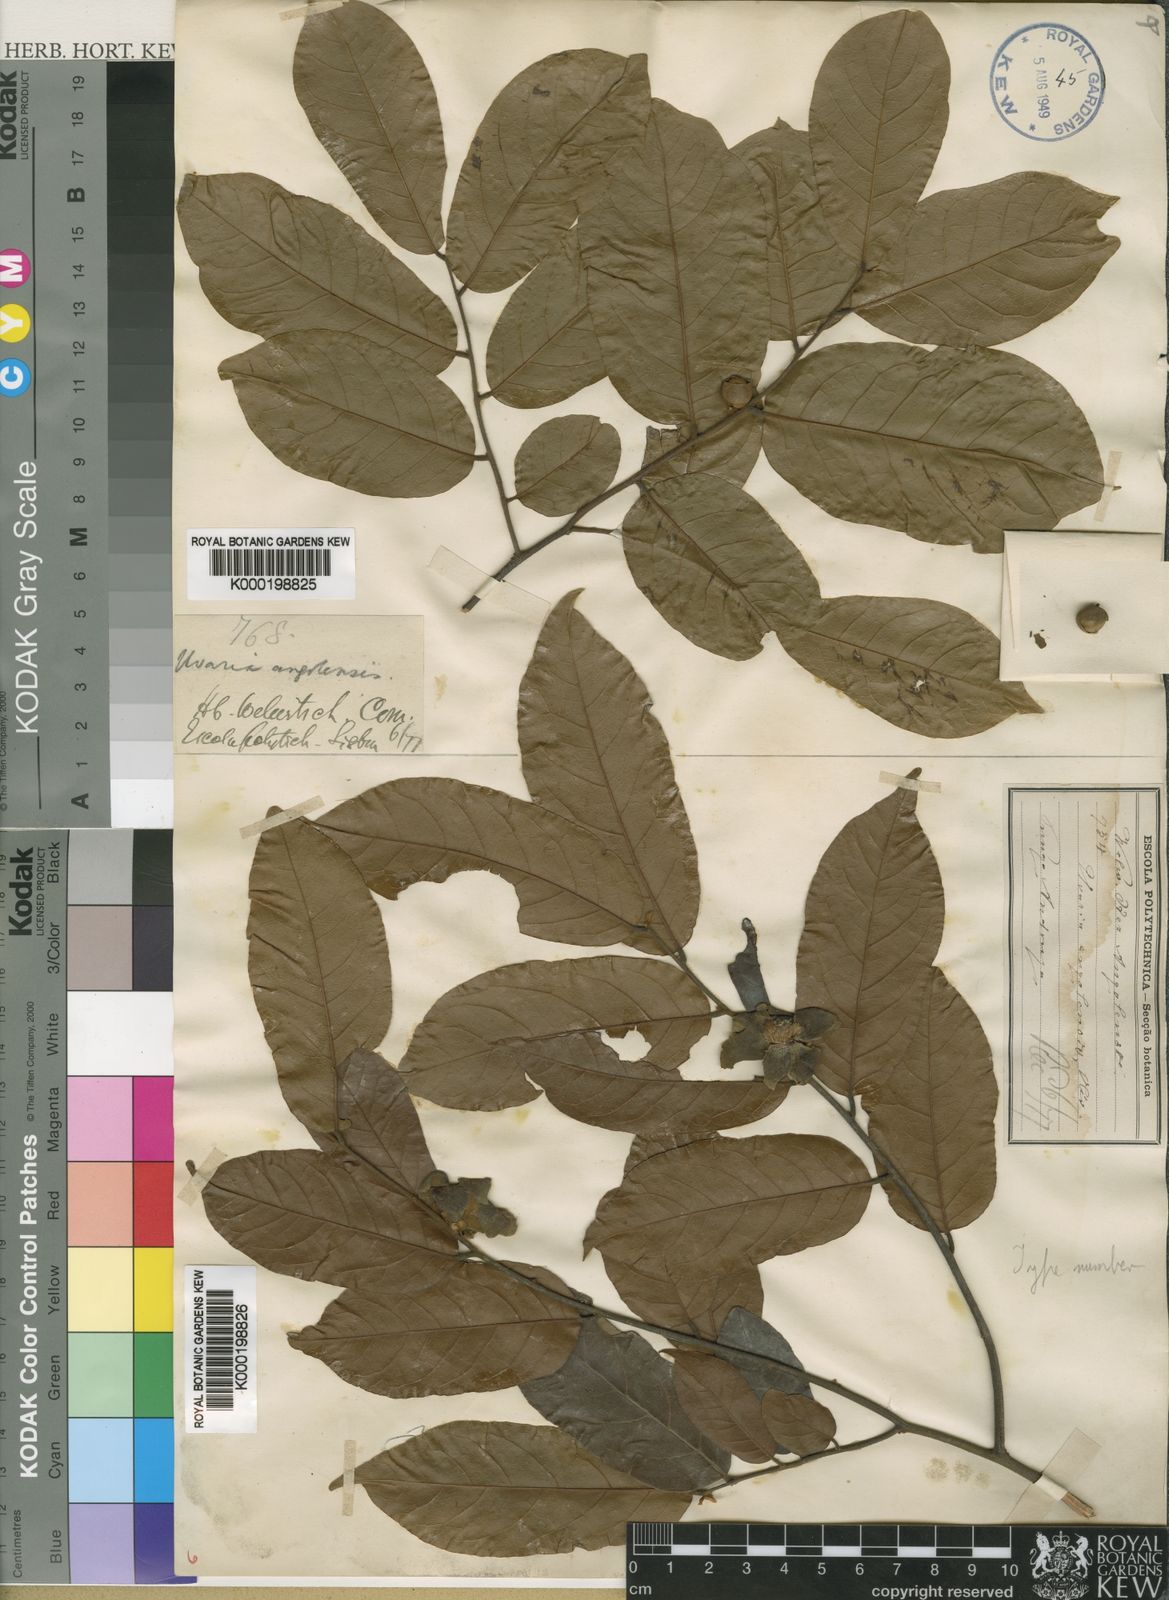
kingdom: Plantae
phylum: Tracheophyta
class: Magnoliopsida
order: Magnoliales
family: Annonaceae
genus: Uvaria
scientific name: Uvaria angolensis
